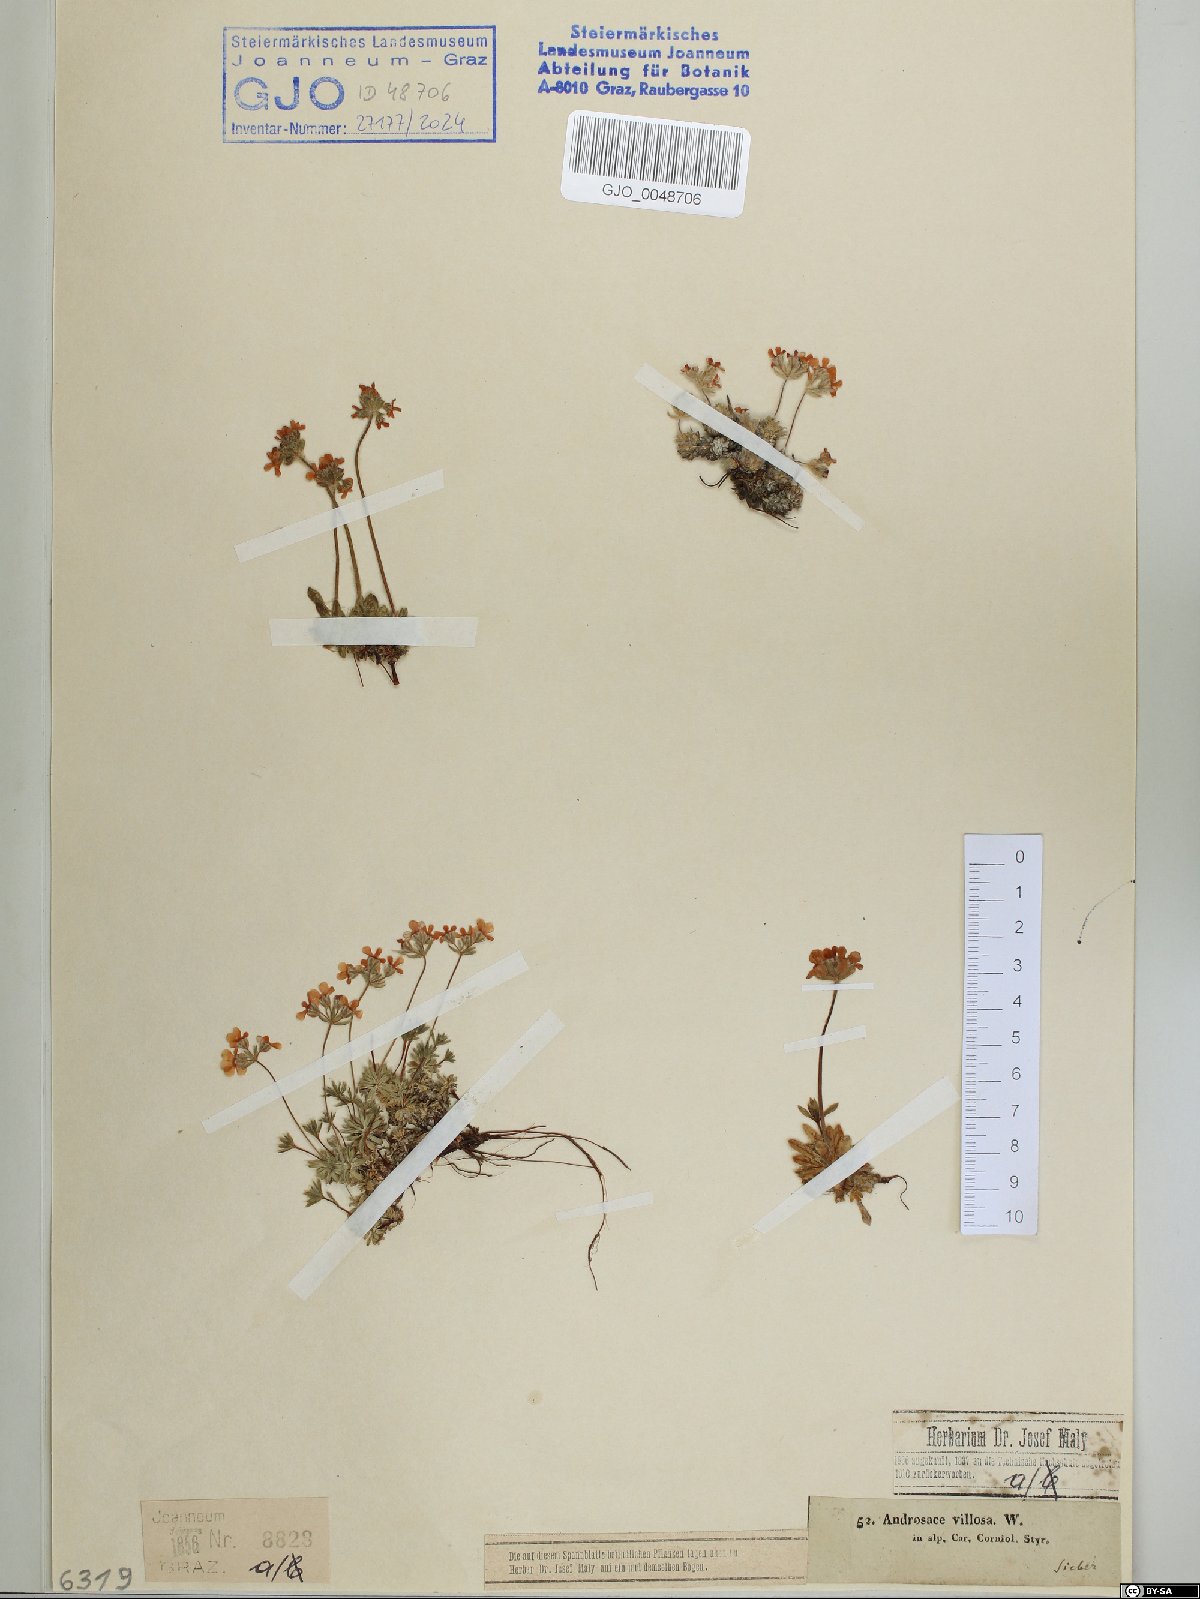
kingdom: Plantae
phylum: Tracheophyta
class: Magnoliopsida
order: Ericales
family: Primulaceae
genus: Androsace
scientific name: Androsace villosa
